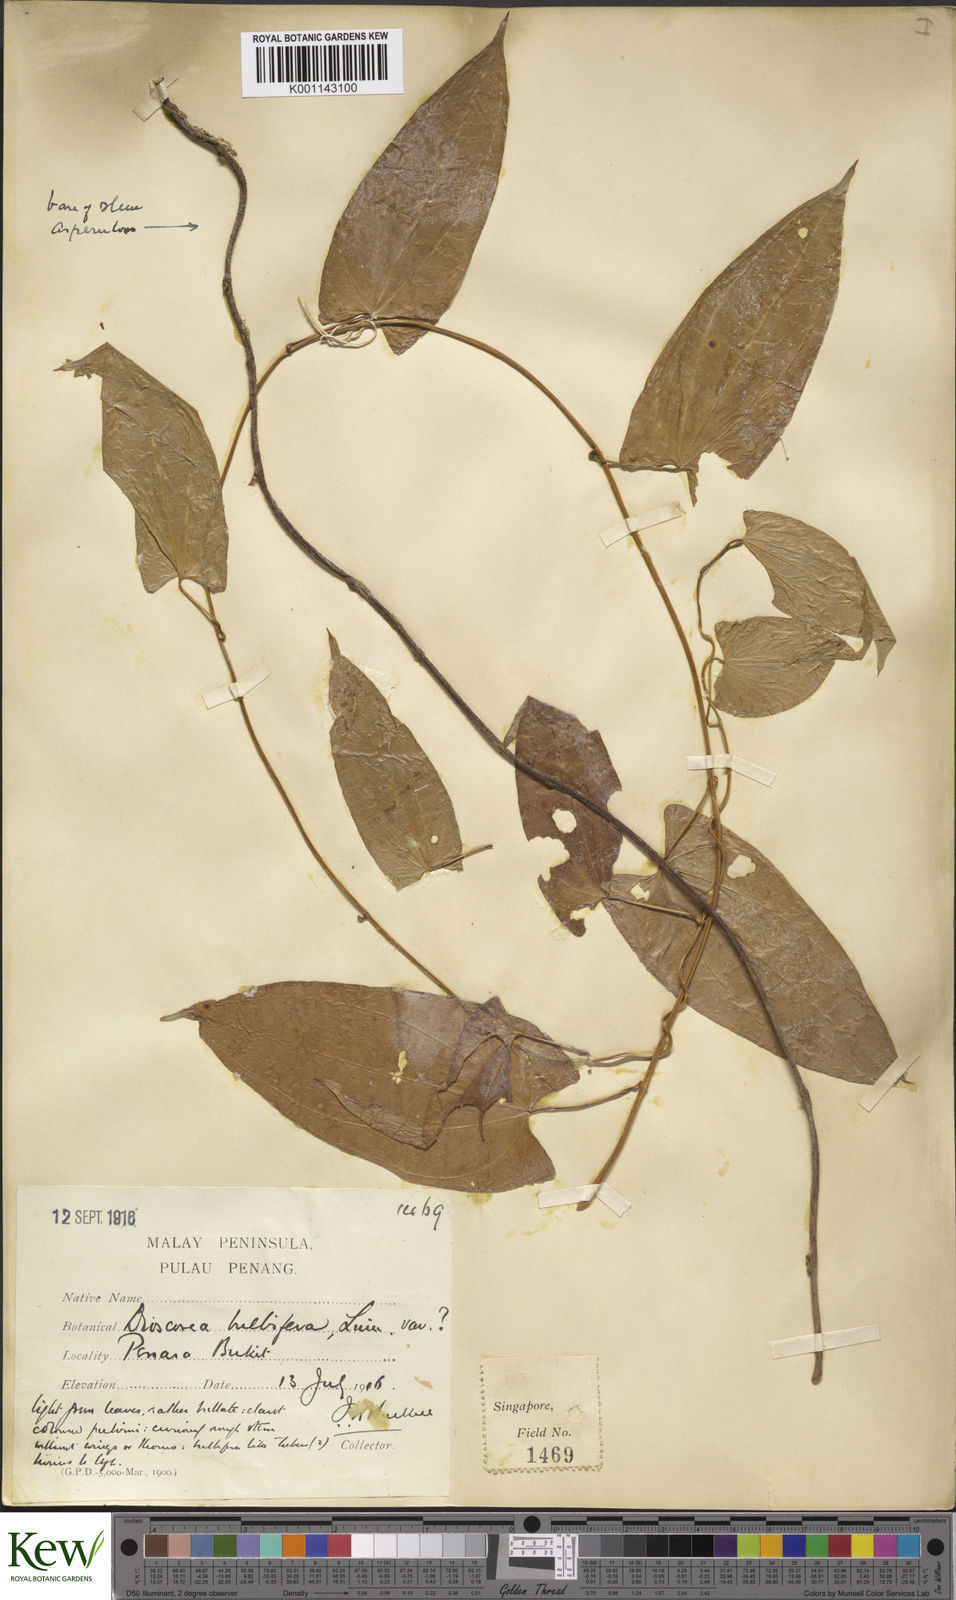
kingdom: Plantae
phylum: Tracheophyta
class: Liliopsida
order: Dioscoreales
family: Dioscoreaceae
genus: Dioscorea
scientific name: Dioscorea bulbifera
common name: Air yam
